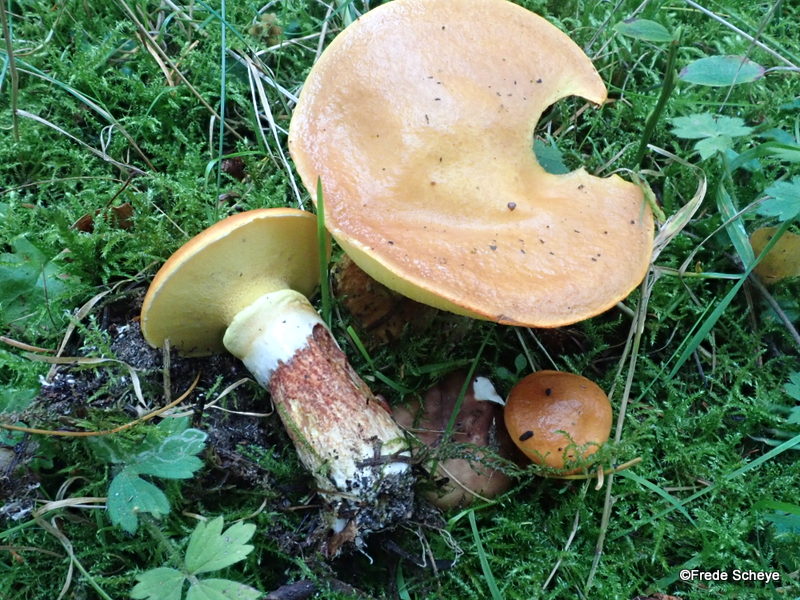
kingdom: Fungi
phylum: Basidiomycota
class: Agaricomycetes
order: Boletales
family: Suillaceae
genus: Suillus
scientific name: Suillus grevillei
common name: lærke-slimrørhat
